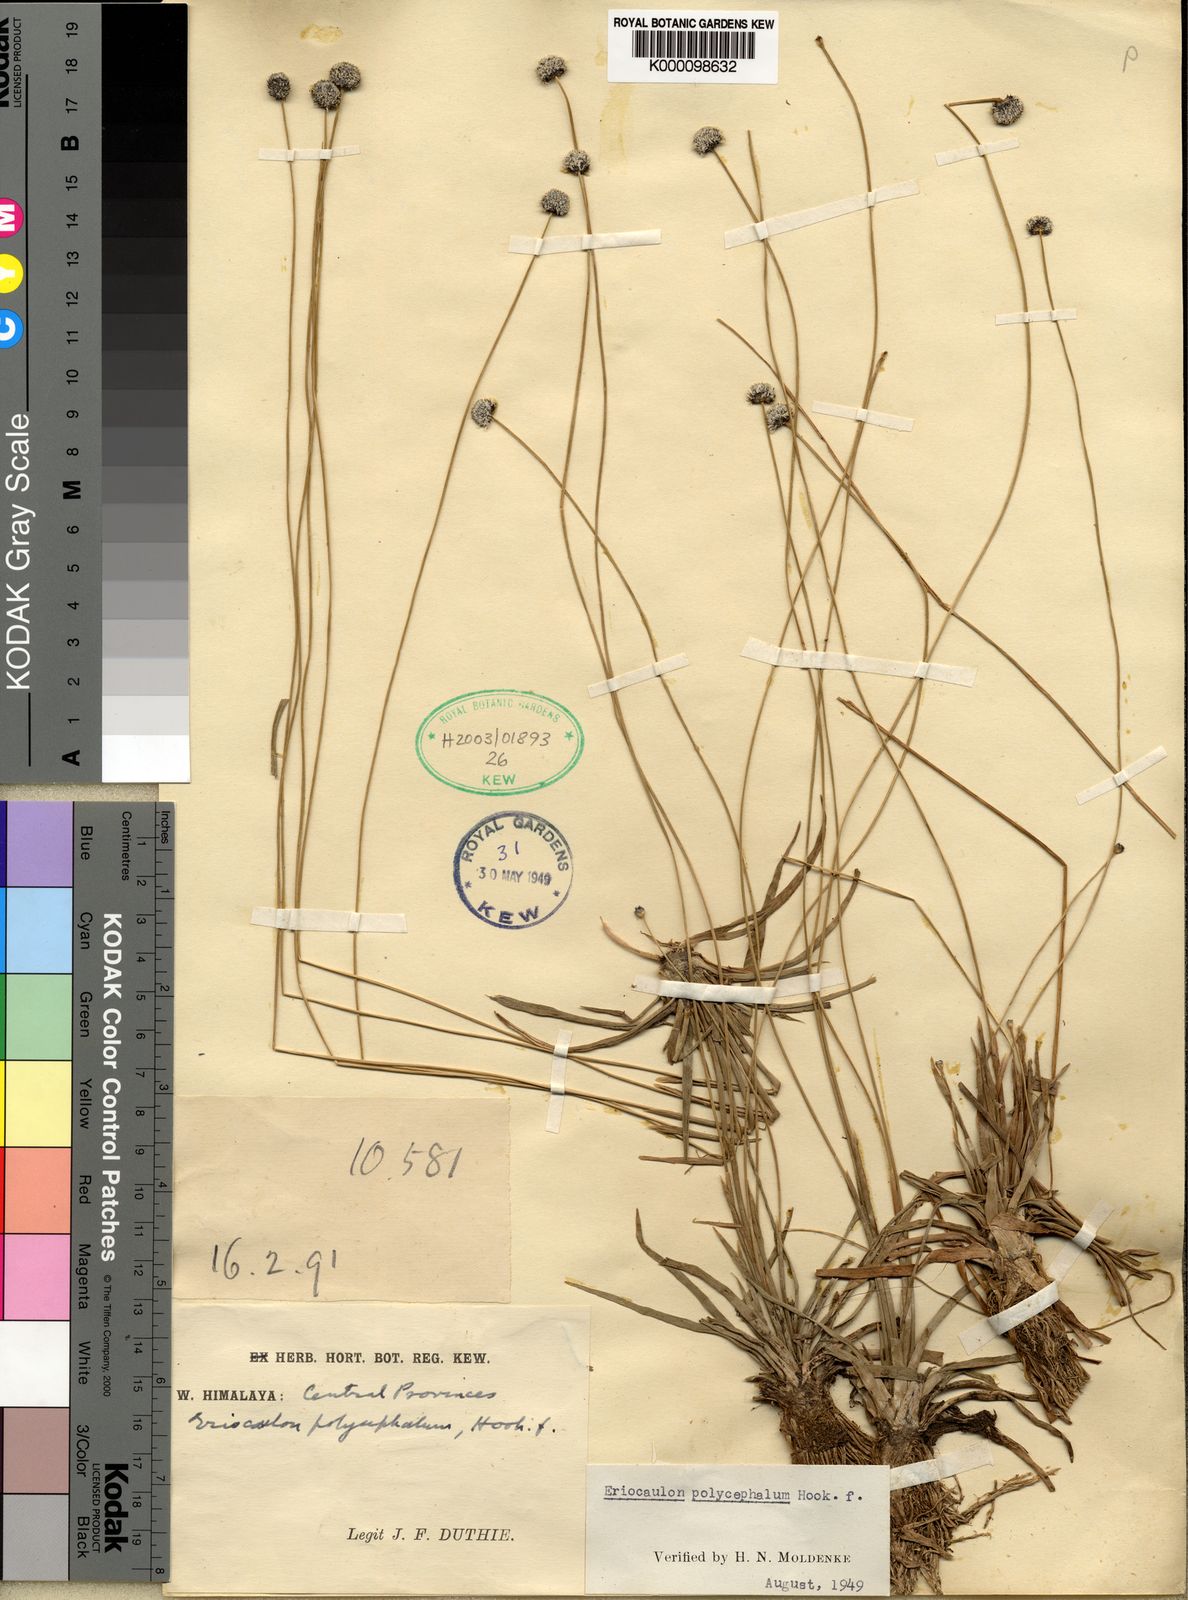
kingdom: Plantae
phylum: Tracheophyta
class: Liliopsida
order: Poales
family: Eriocaulaceae
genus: Eriocaulon
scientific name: Eriocaulon longicuspe
